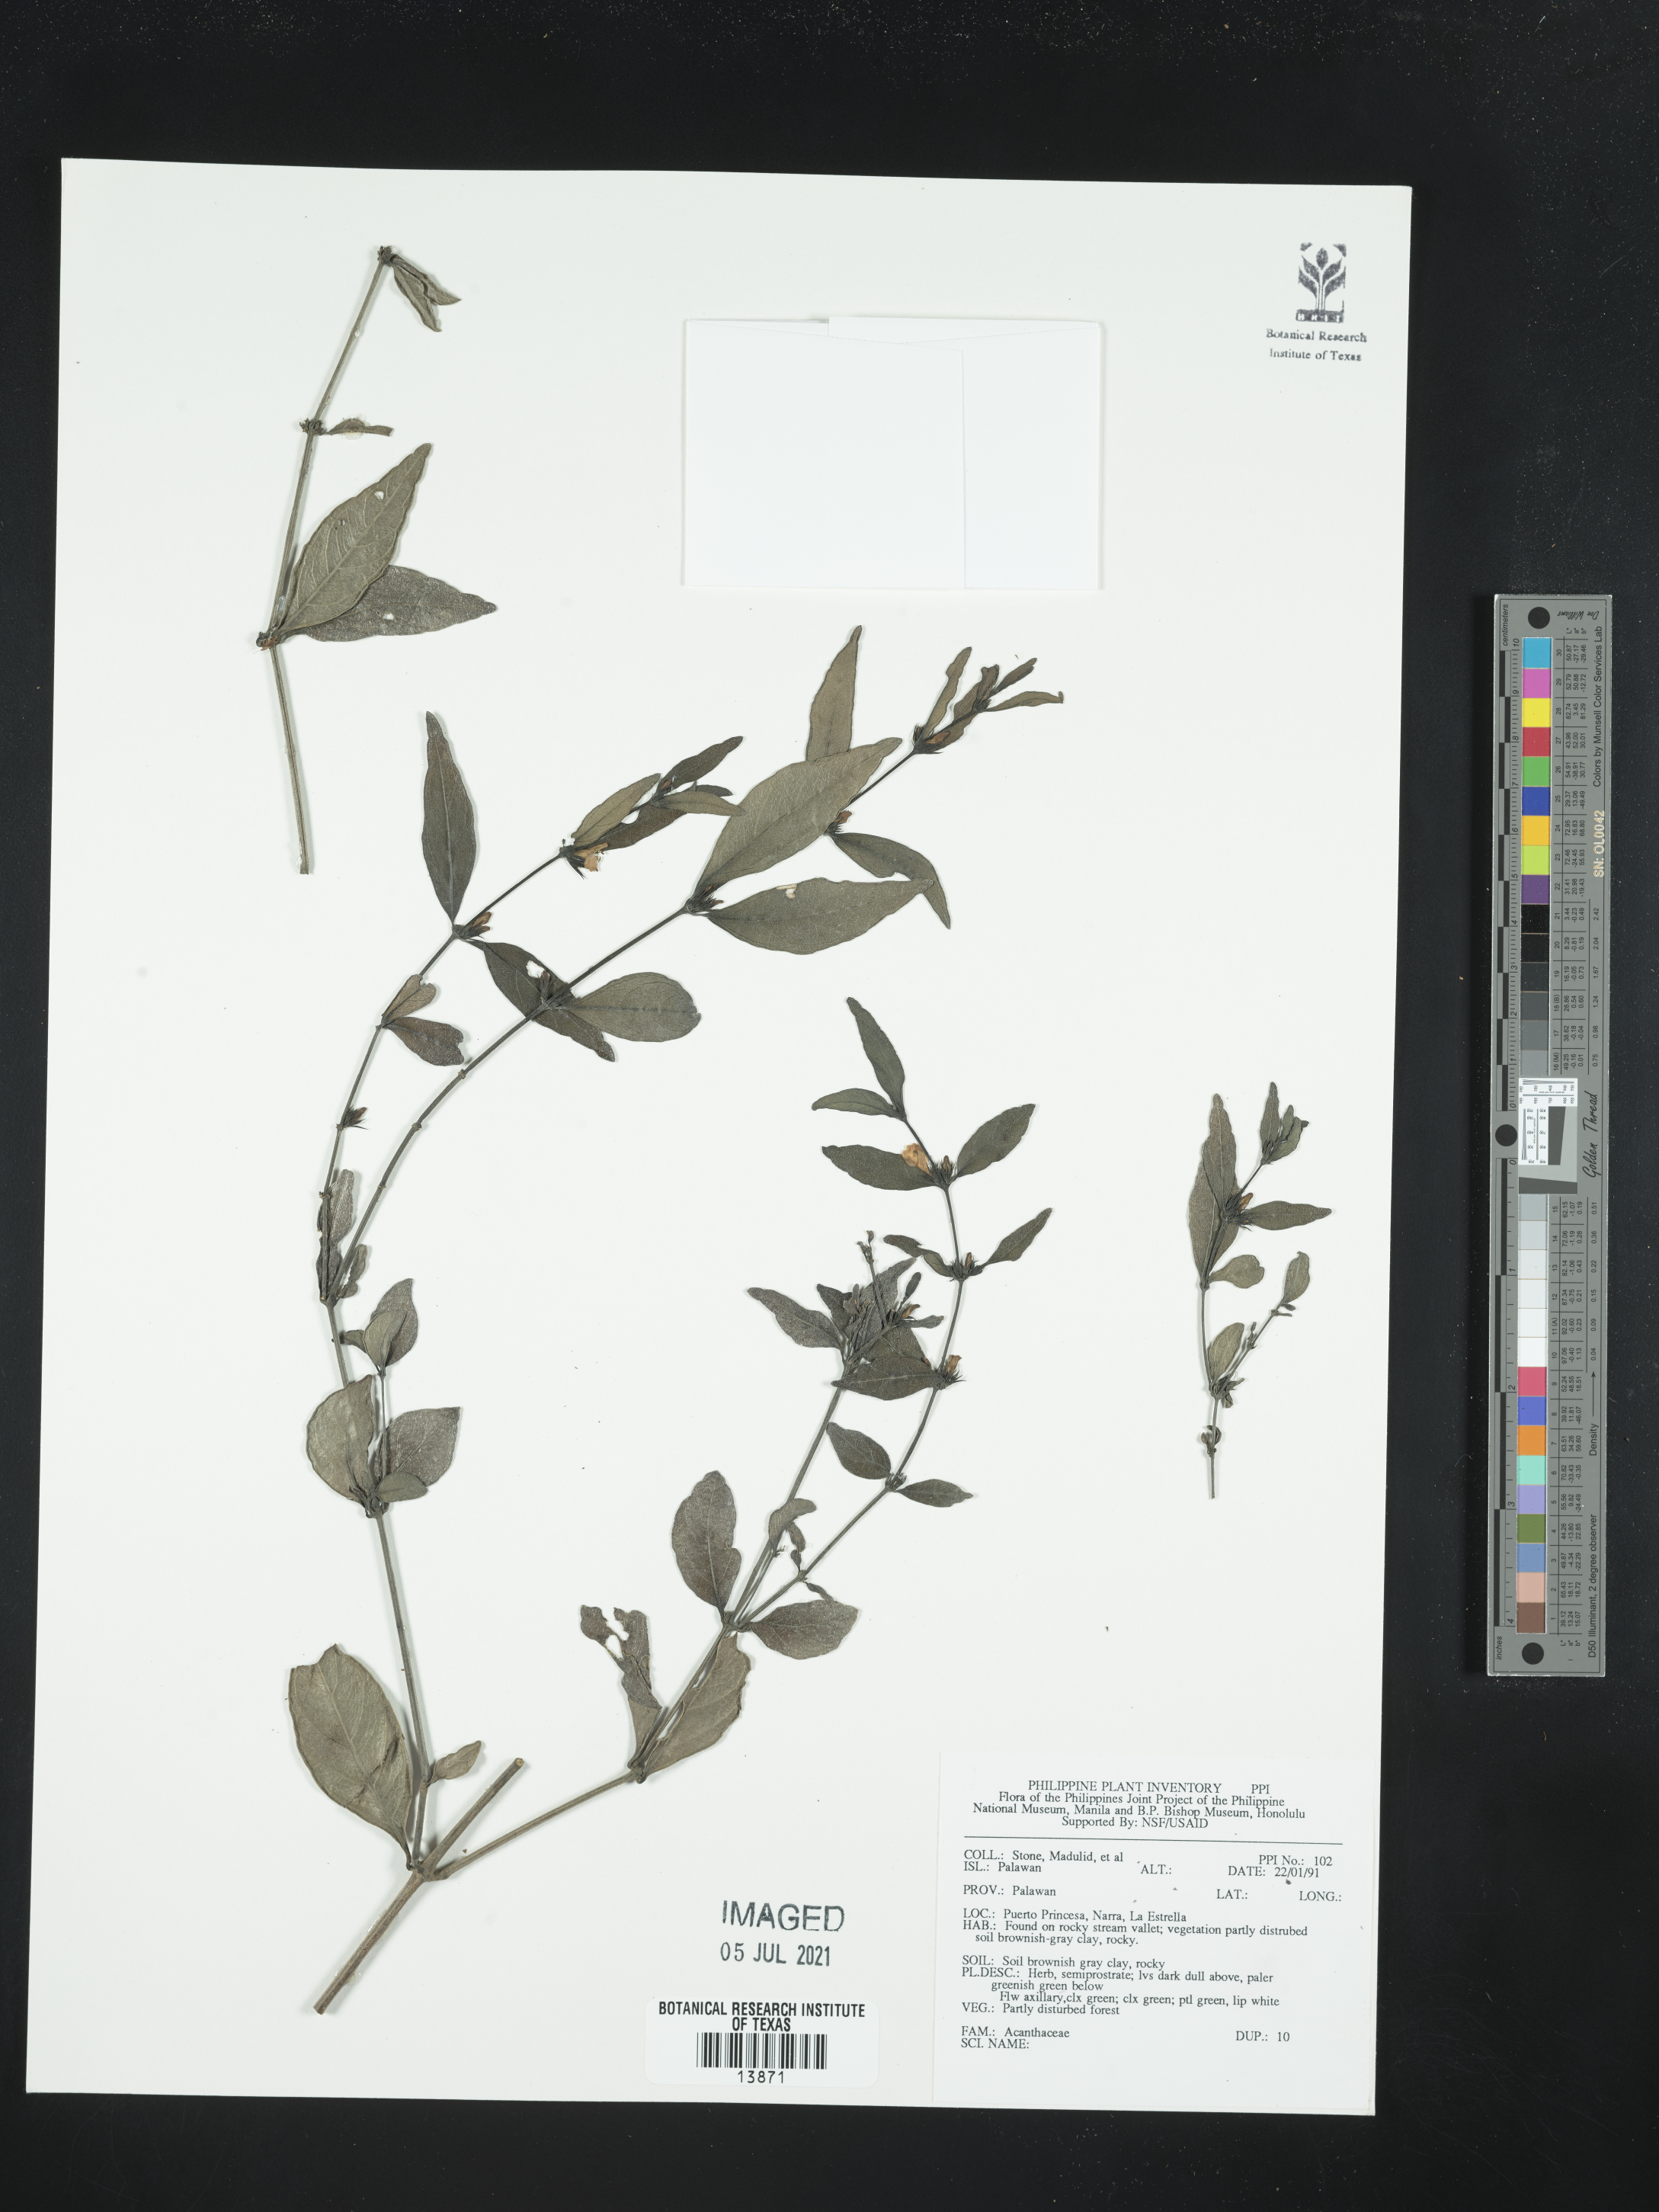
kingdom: Plantae
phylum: Tracheophyta
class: Magnoliopsida
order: Lamiales
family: Acanthaceae
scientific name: Acanthaceae
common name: Acanthaceae
